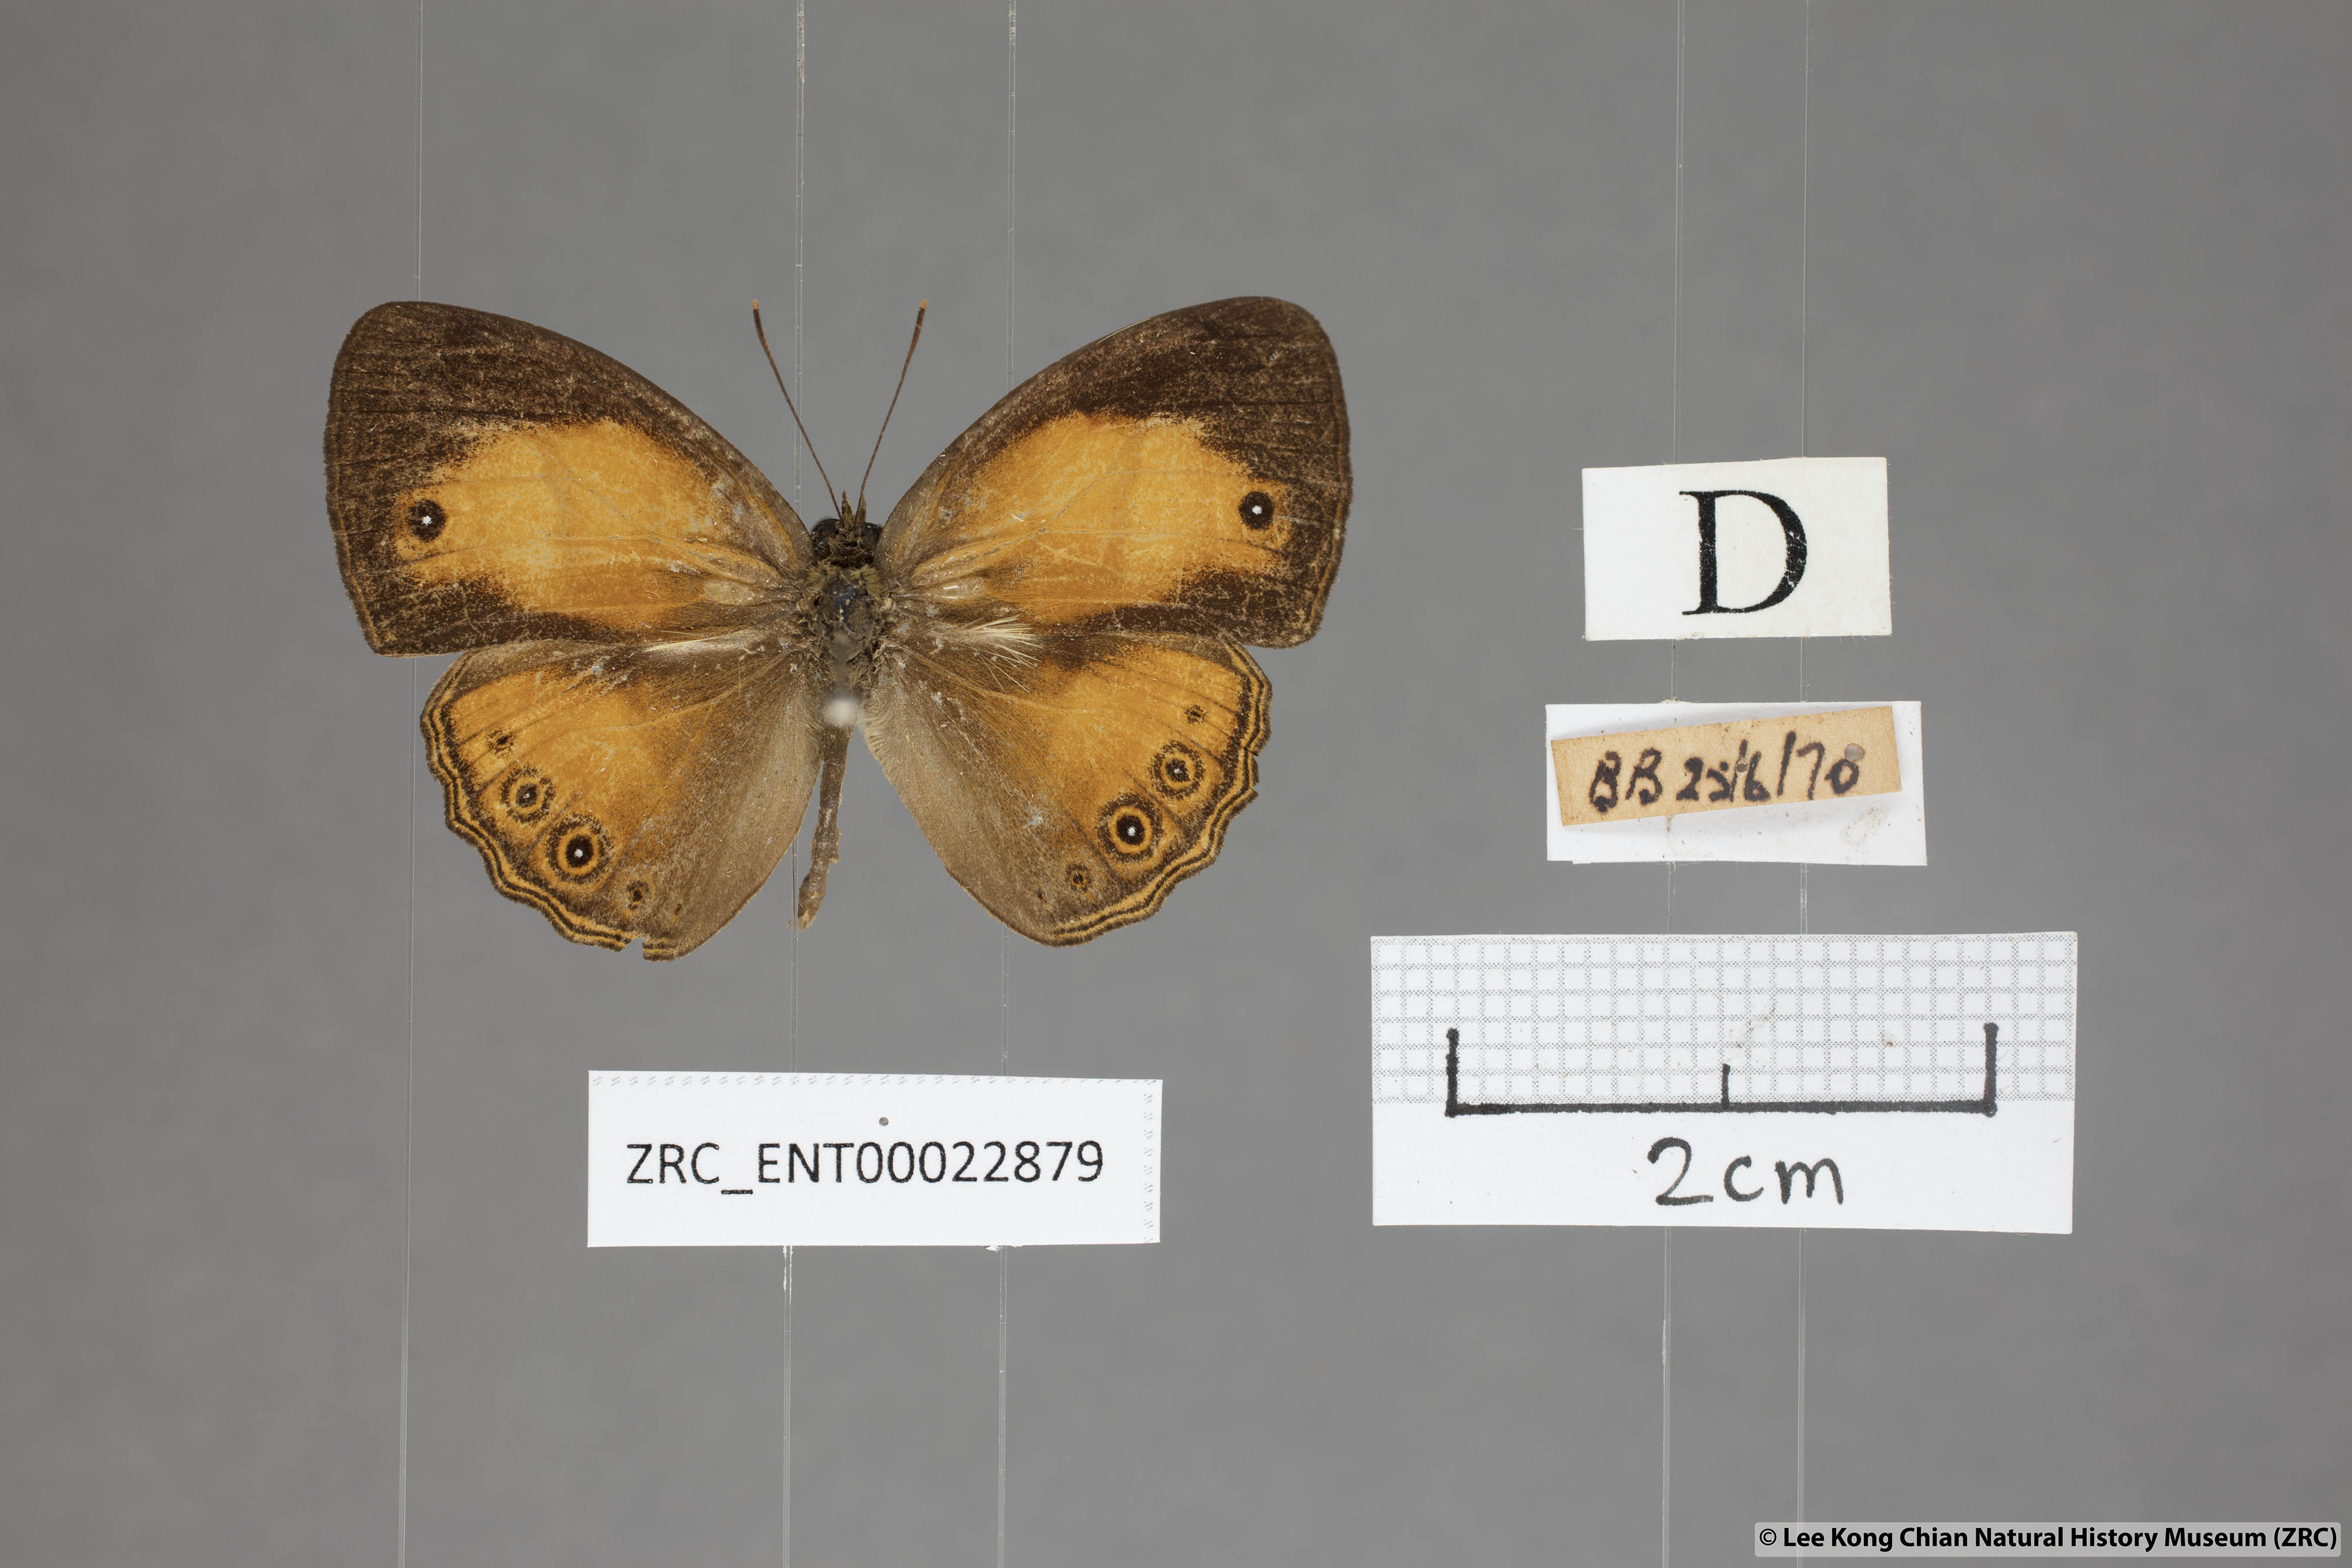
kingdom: Animalia
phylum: Arthropoda
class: Insecta
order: Lepidoptera
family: Nymphalidae
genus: Mycalesis
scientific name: Mycalesis anapita
